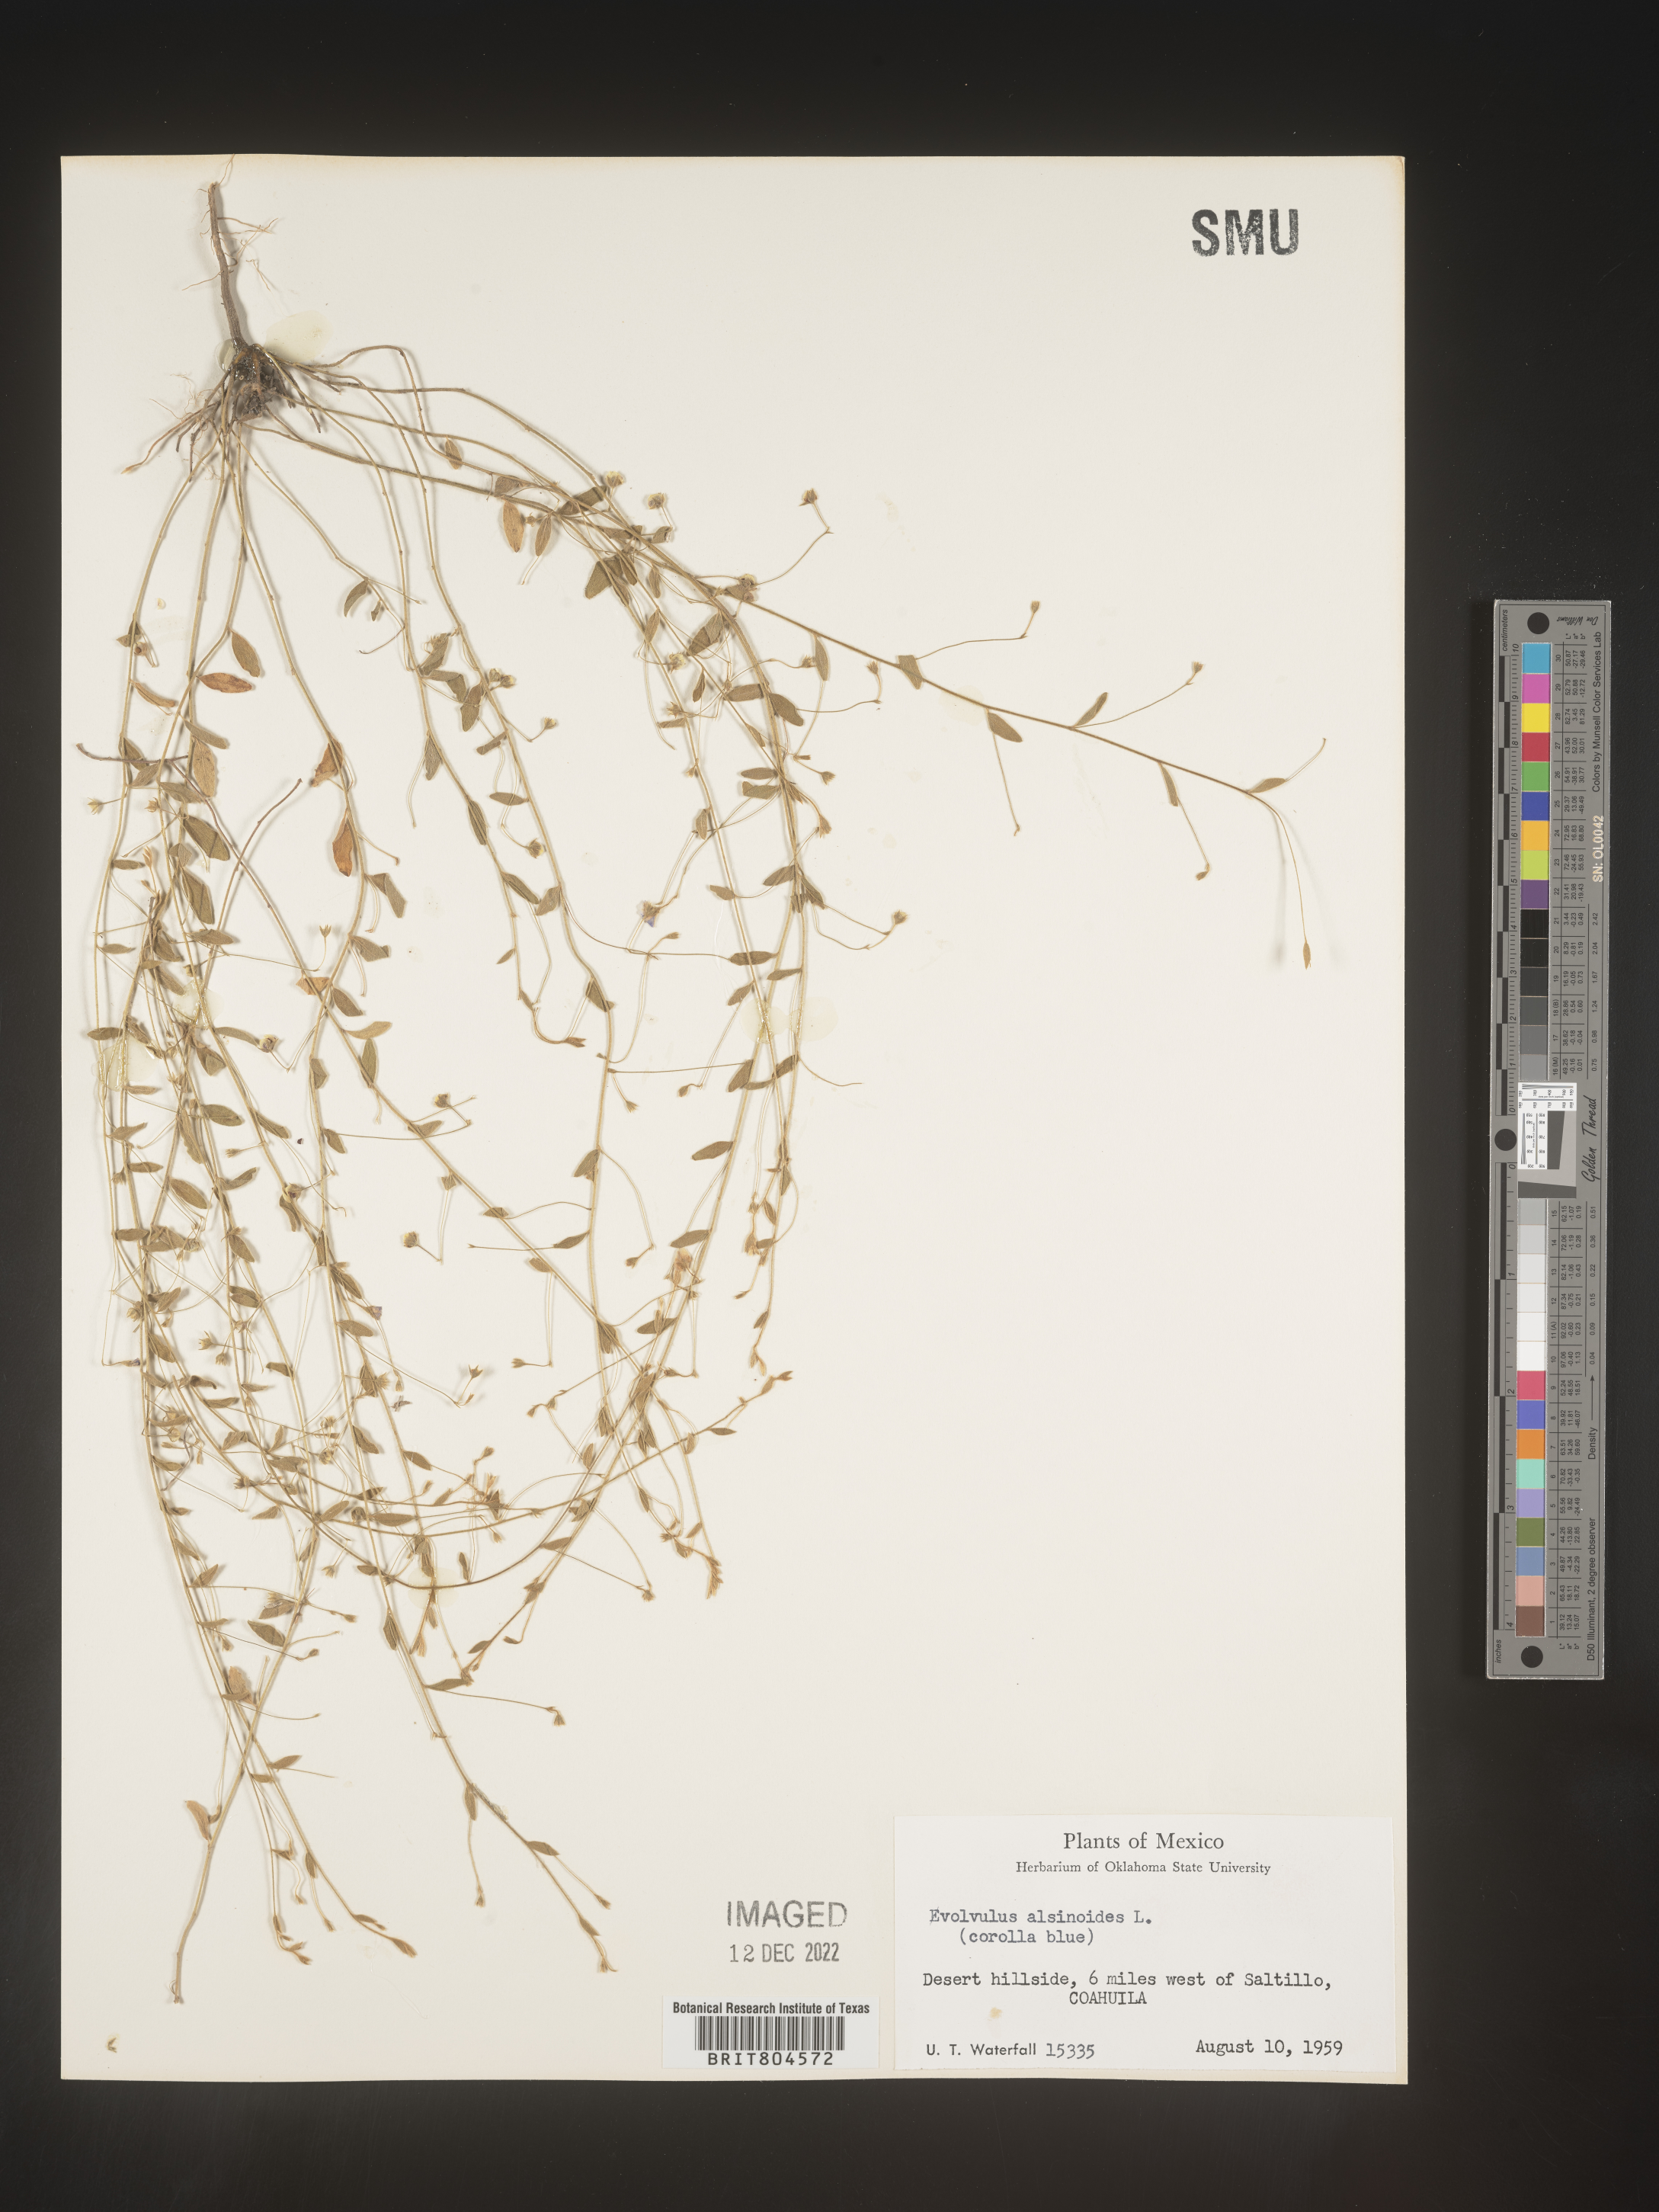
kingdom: Plantae
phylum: Tracheophyta
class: Magnoliopsida
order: Solanales
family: Convolvulaceae
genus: Evolvulus
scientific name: Evolvulus
